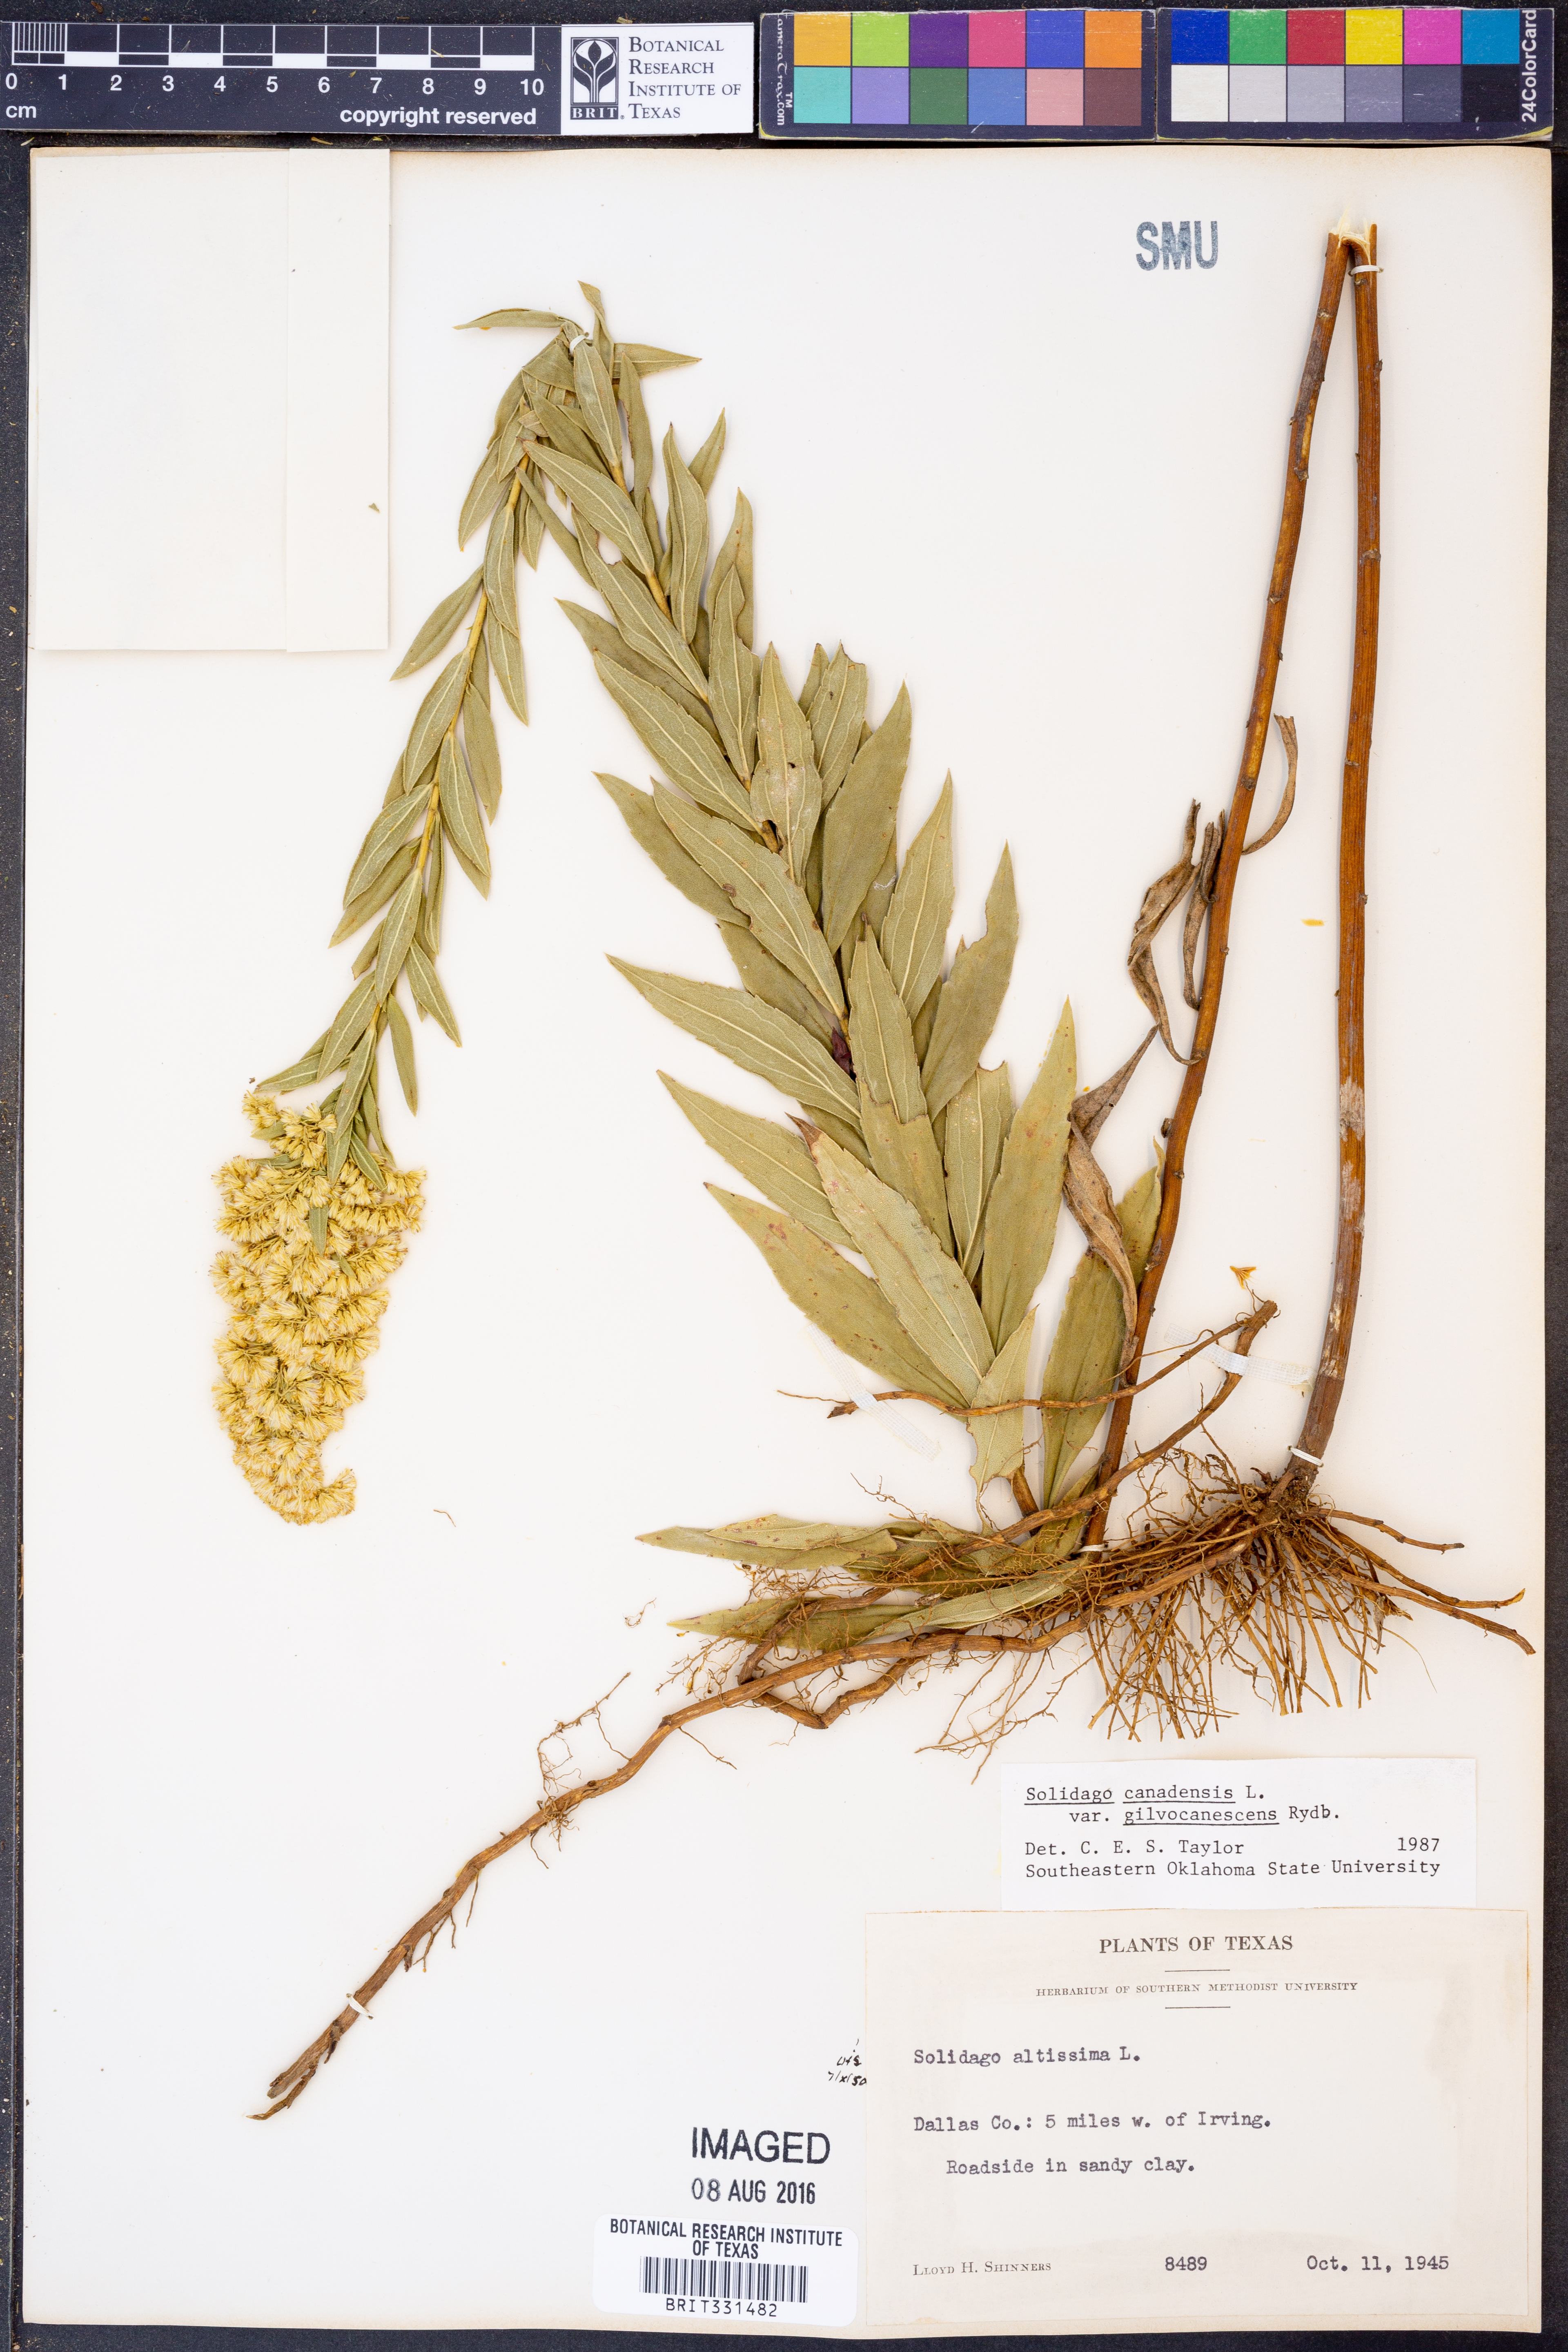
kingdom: Plantae
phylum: Tracheophyta
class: Magnoliopsida
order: Asterales
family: Asteraceae
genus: Solidago
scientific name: Solidago altissima
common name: Late goldenrod
